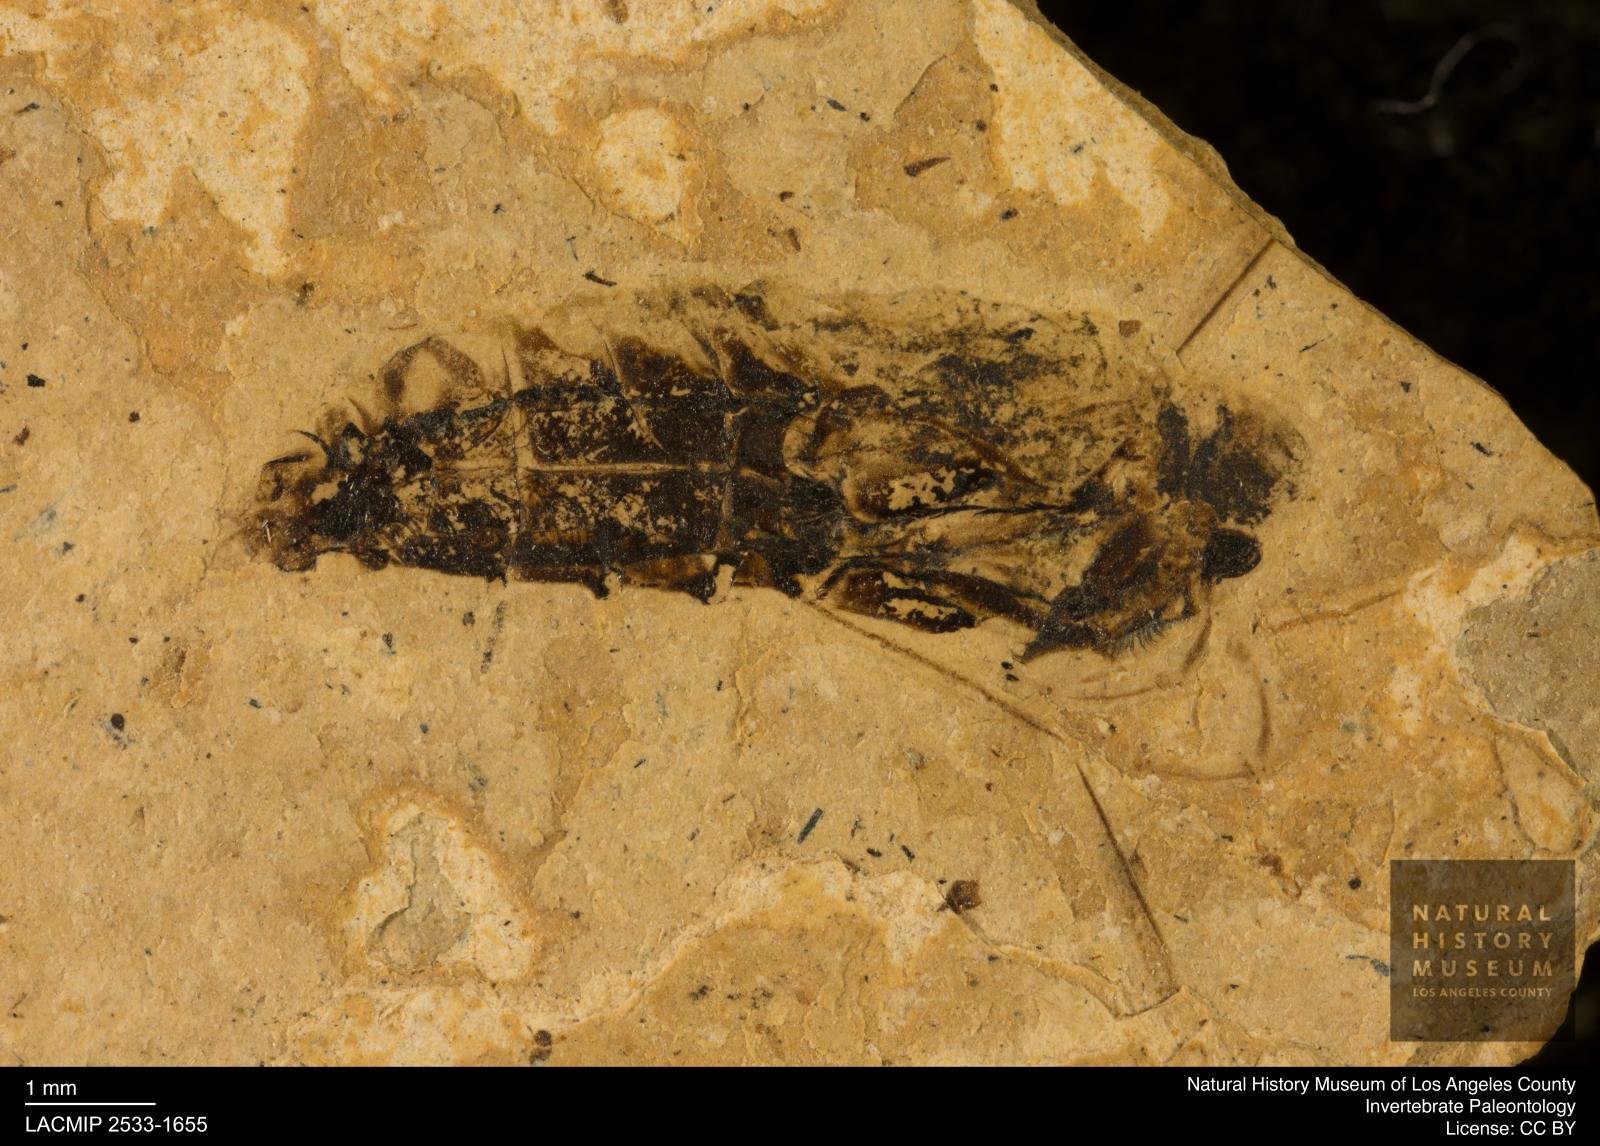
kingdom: Animalia
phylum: Arthropoda
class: Insecta
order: Hemiptera
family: Notonectidae
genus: Notonecta
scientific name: Notonecta
